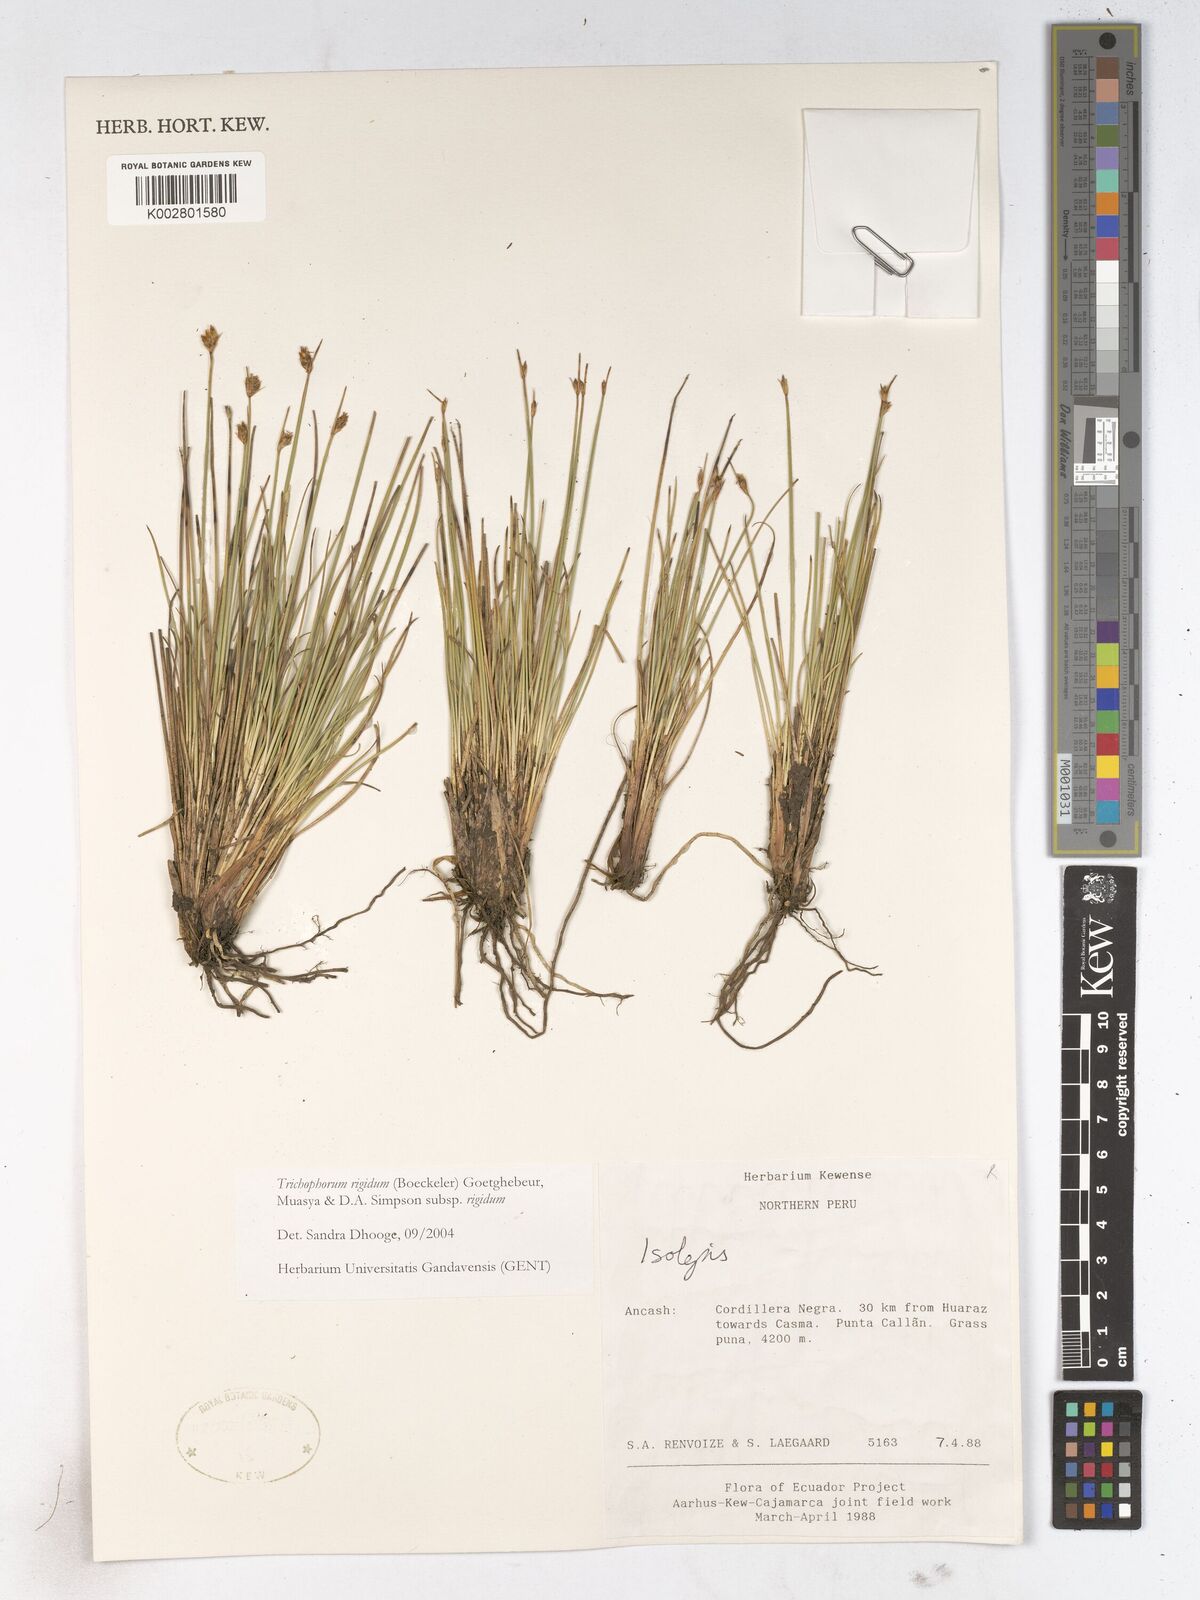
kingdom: Plantae
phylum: Tracheophyta
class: Liliopsida
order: Poales
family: Cyperaceae
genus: Trichophorum
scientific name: Trichophorum rigidum
